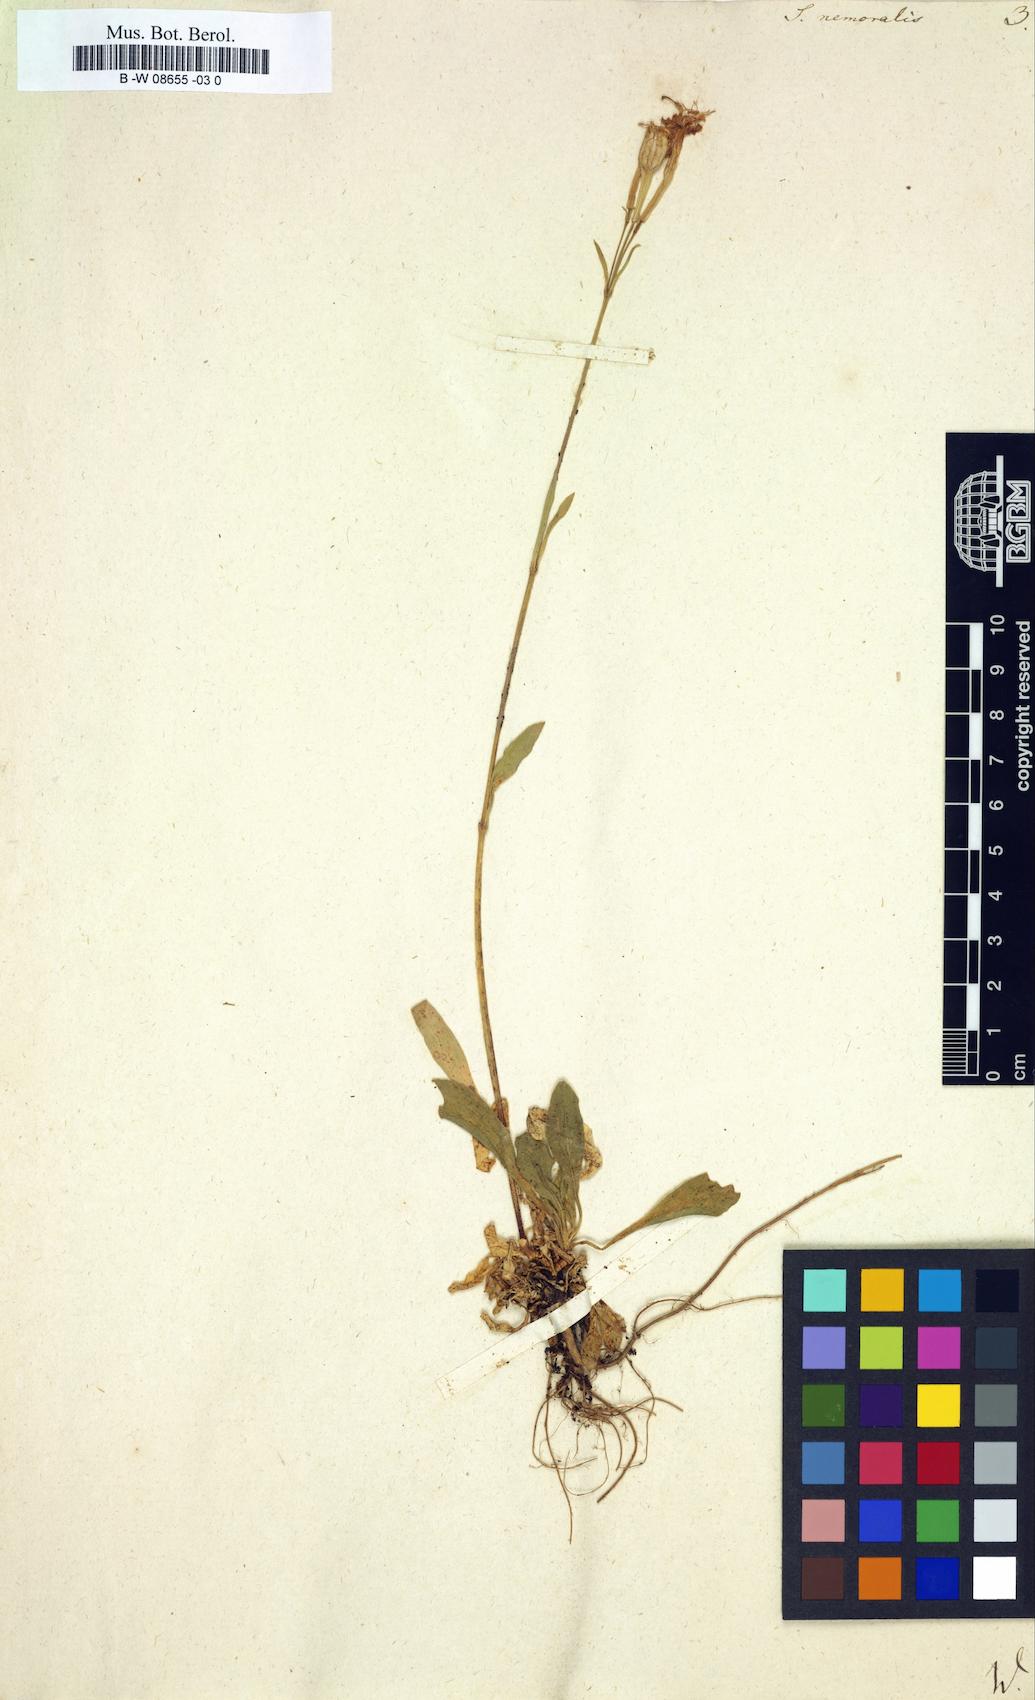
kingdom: Plantae
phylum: Tracheophyta
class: Magnoliopsida
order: Caryophyllales
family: Caryophyllaceae
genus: Silene
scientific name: Silene nemoralis
